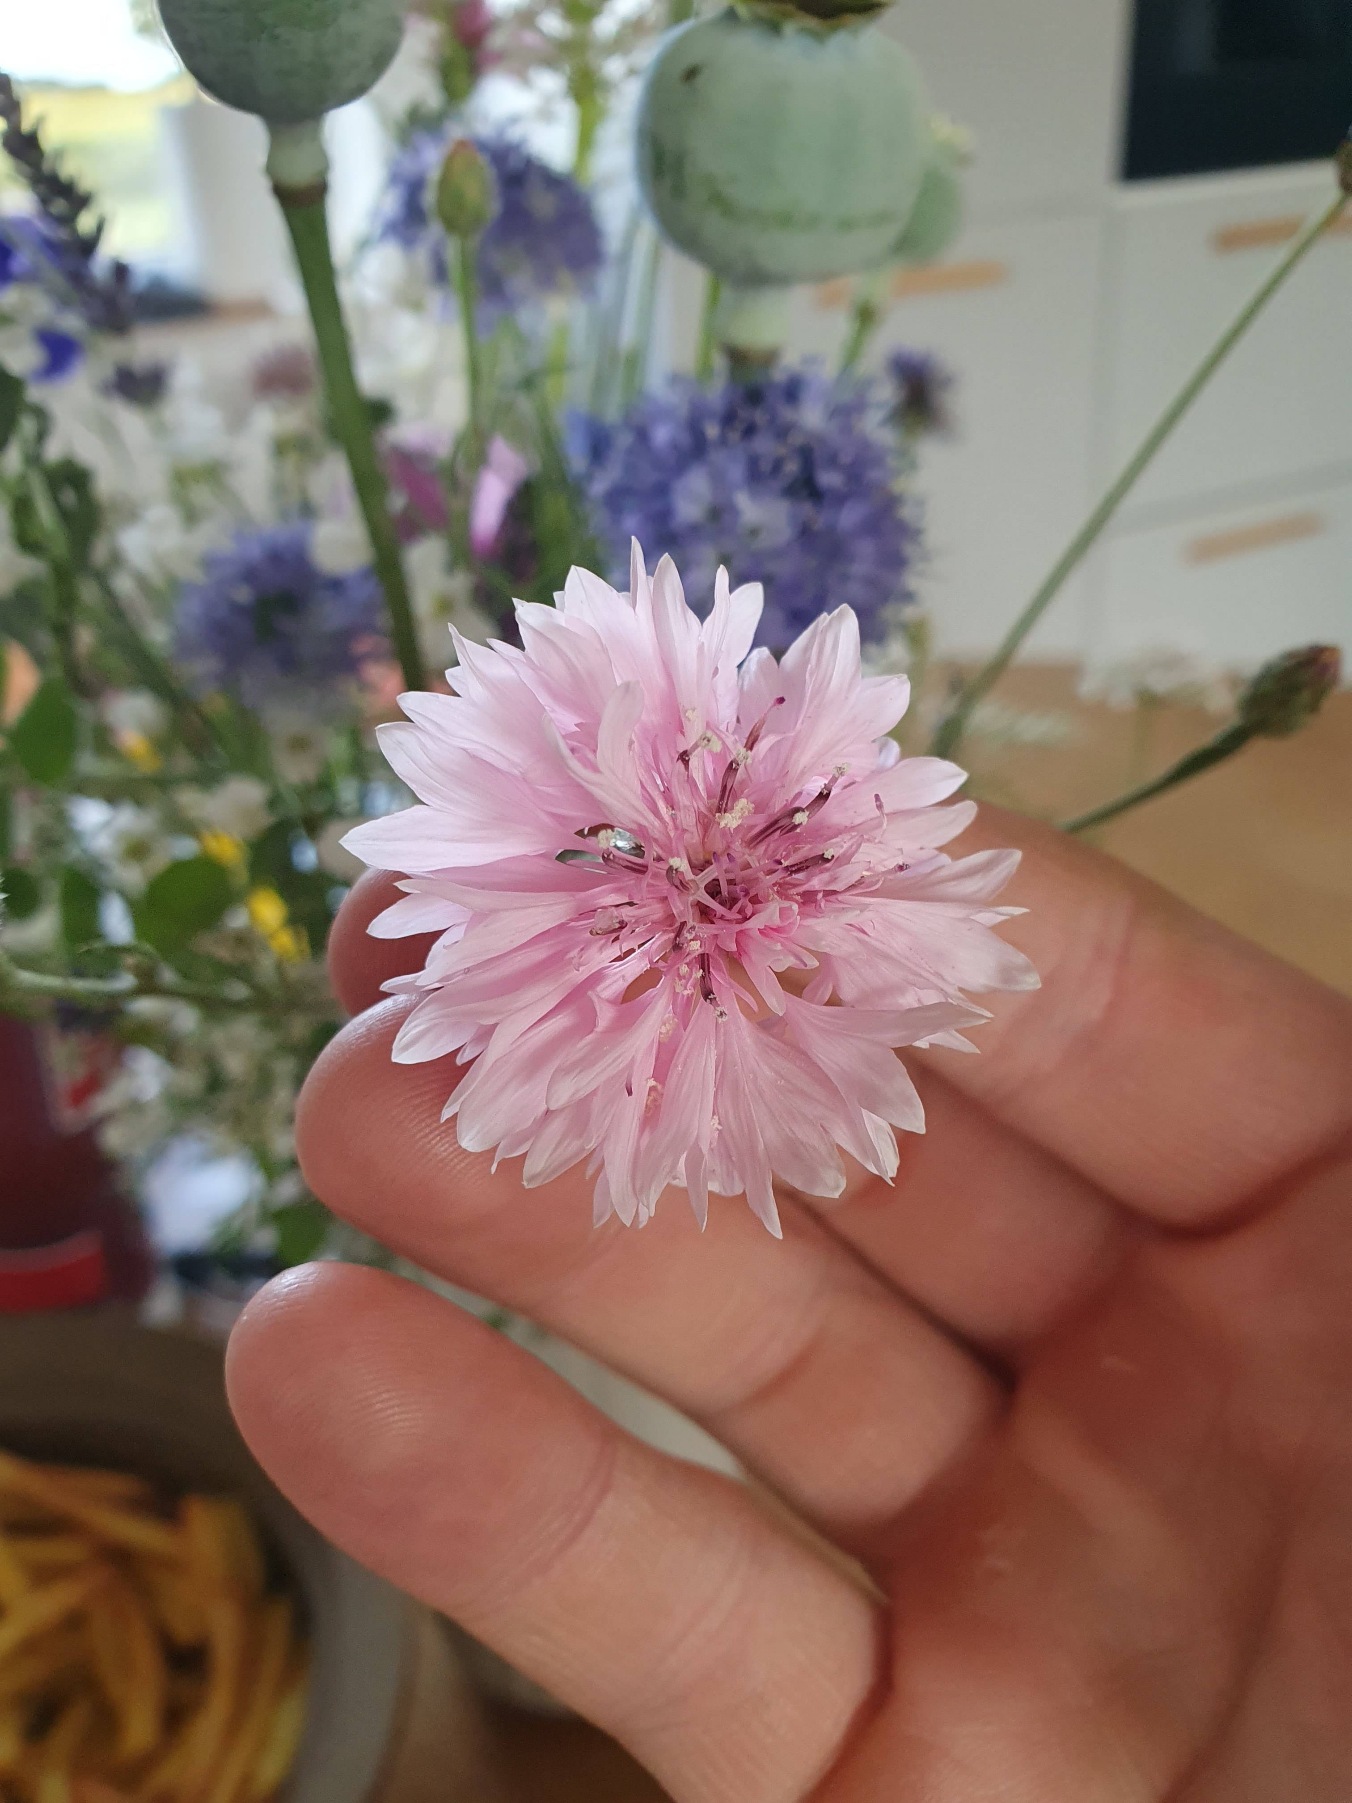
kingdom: Plantae
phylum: Tracheophyta
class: Magnoliopsida
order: Asterales
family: Asteraceae
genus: Centaurea
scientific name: Centaurea cyanus
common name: Kornblomst
